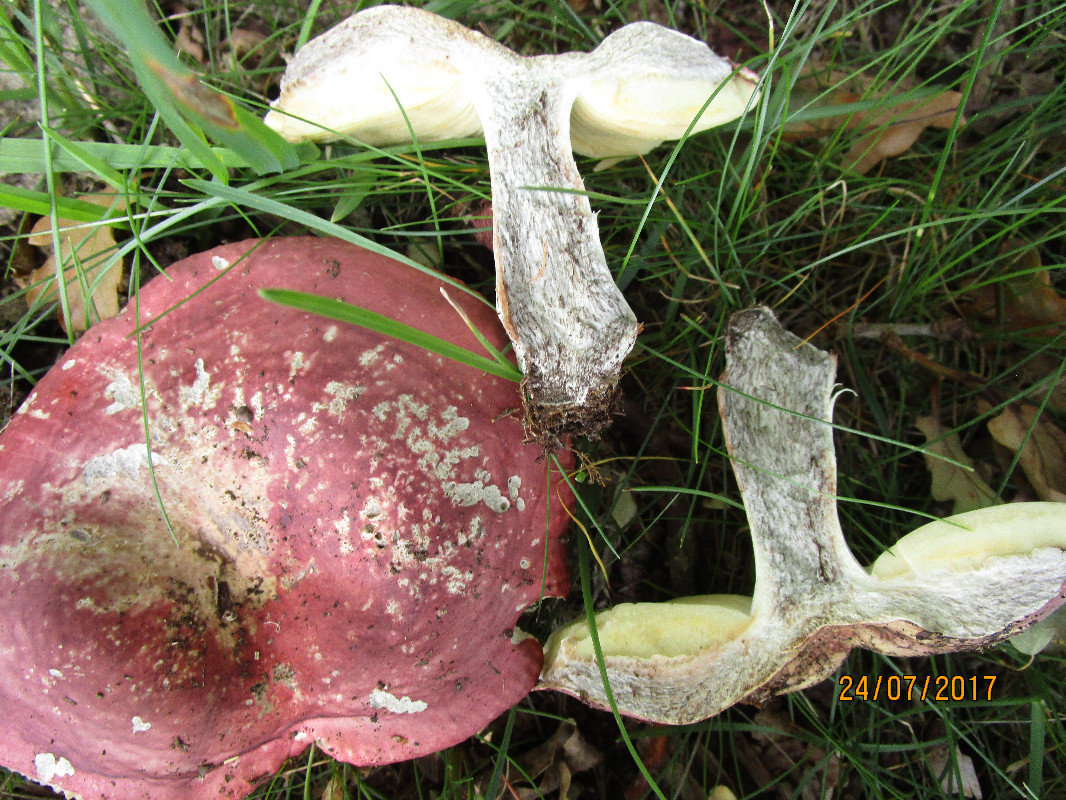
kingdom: Fungi
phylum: Basidiomycota
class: Agaricomycetes
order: Russulales
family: Russulaceae
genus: Russula
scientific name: Russula seperina
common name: rødmende skørhat
